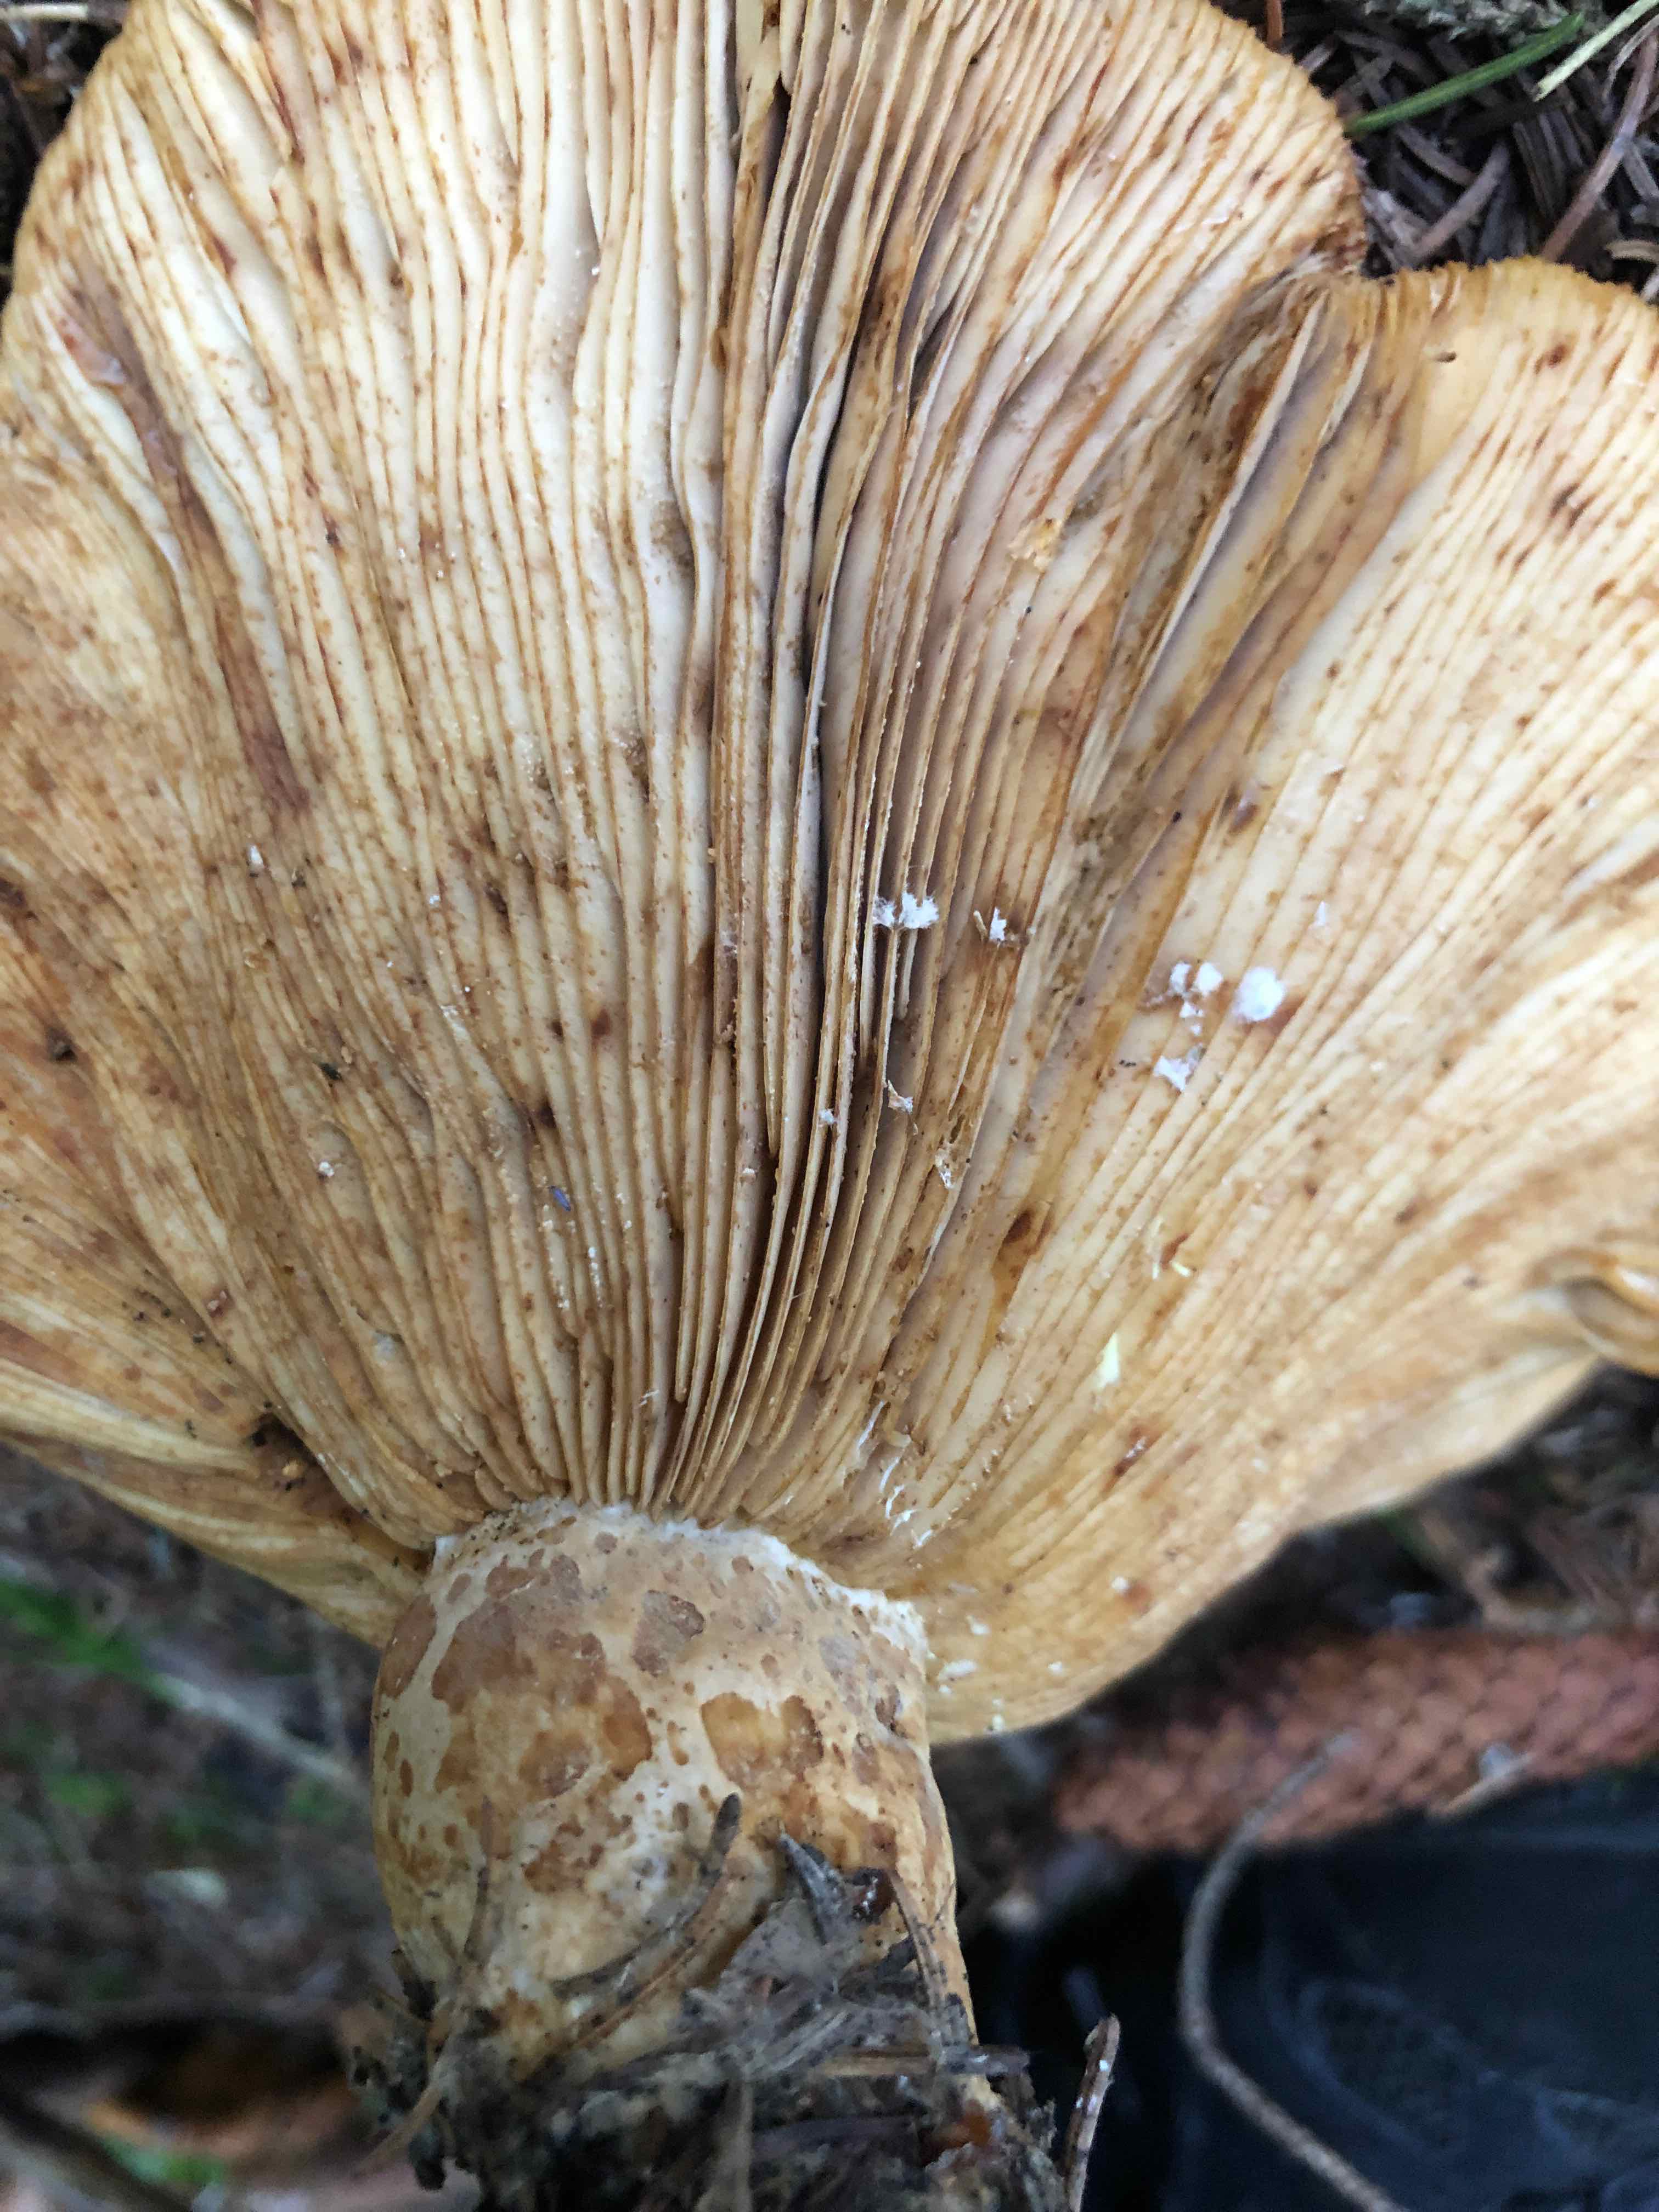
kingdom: Fungi
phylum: Basidiomycota
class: Agaricomycetes
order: Russulales
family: Russulaceae
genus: Lactarius
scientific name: Lactarius scrobiculatus
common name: grubestokket mælkehat
